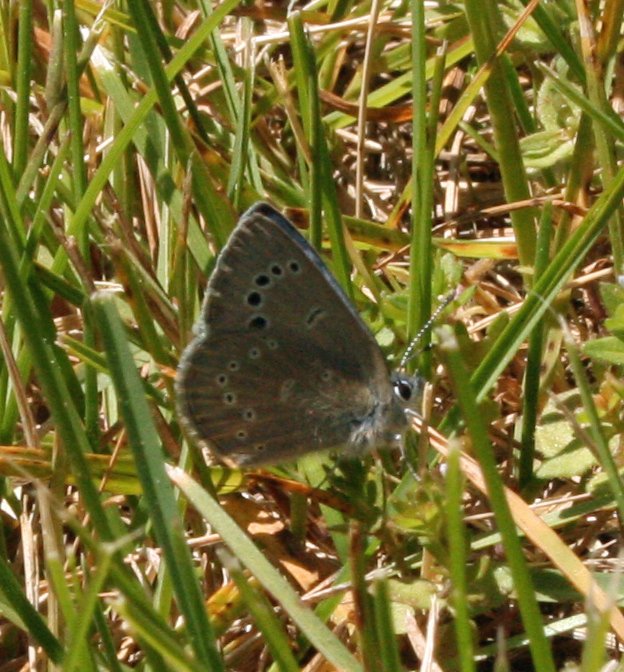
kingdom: Animalia
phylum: Arthropoda
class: Insecta
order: Lepidoptera
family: Lycaenidae
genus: Glaucopsyche
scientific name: Glaucopsyche lygdamus
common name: Silvery Blue
